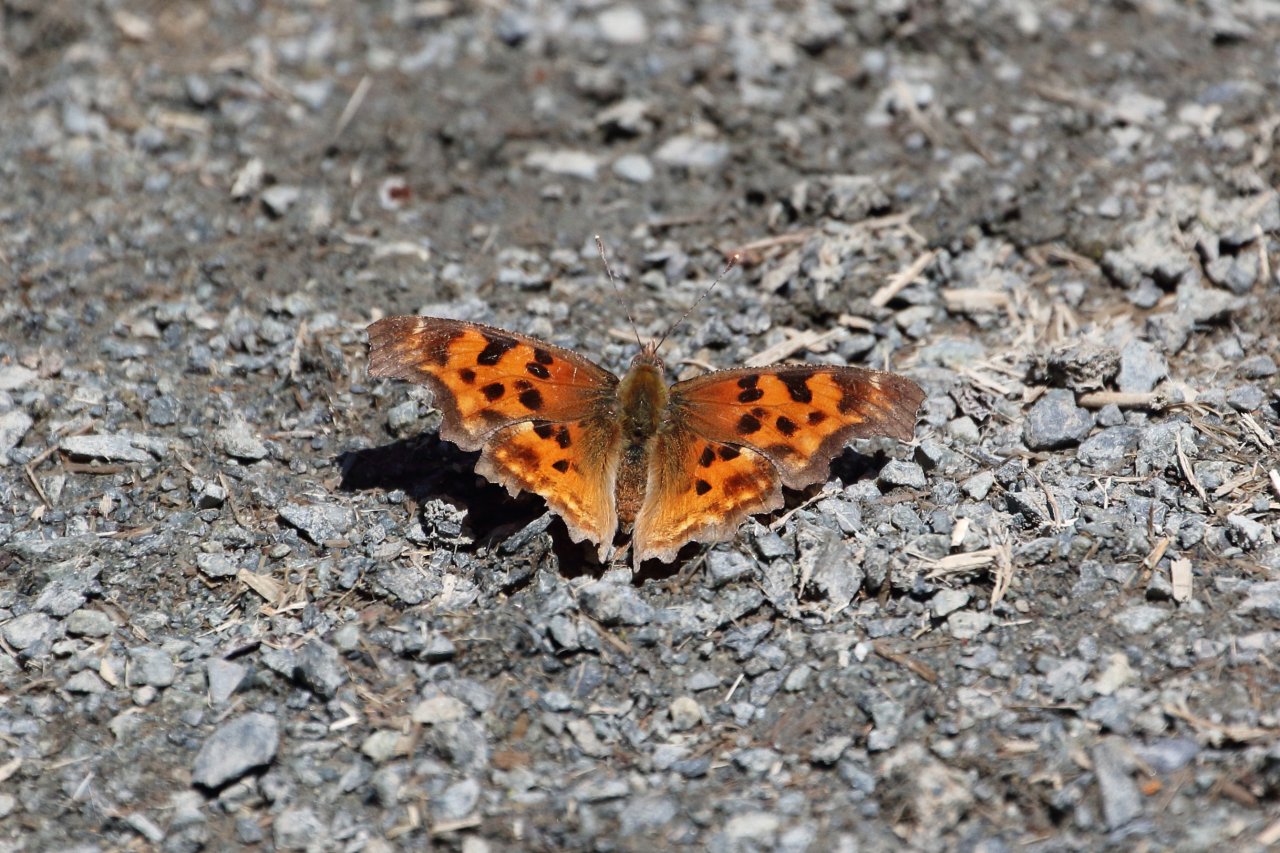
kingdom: Animalia
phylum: Arthropoda
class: Insecta
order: Lepidoptera
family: Nymphalidae
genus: Polygonia
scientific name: Polygonia satyrus
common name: Satyr Comma
